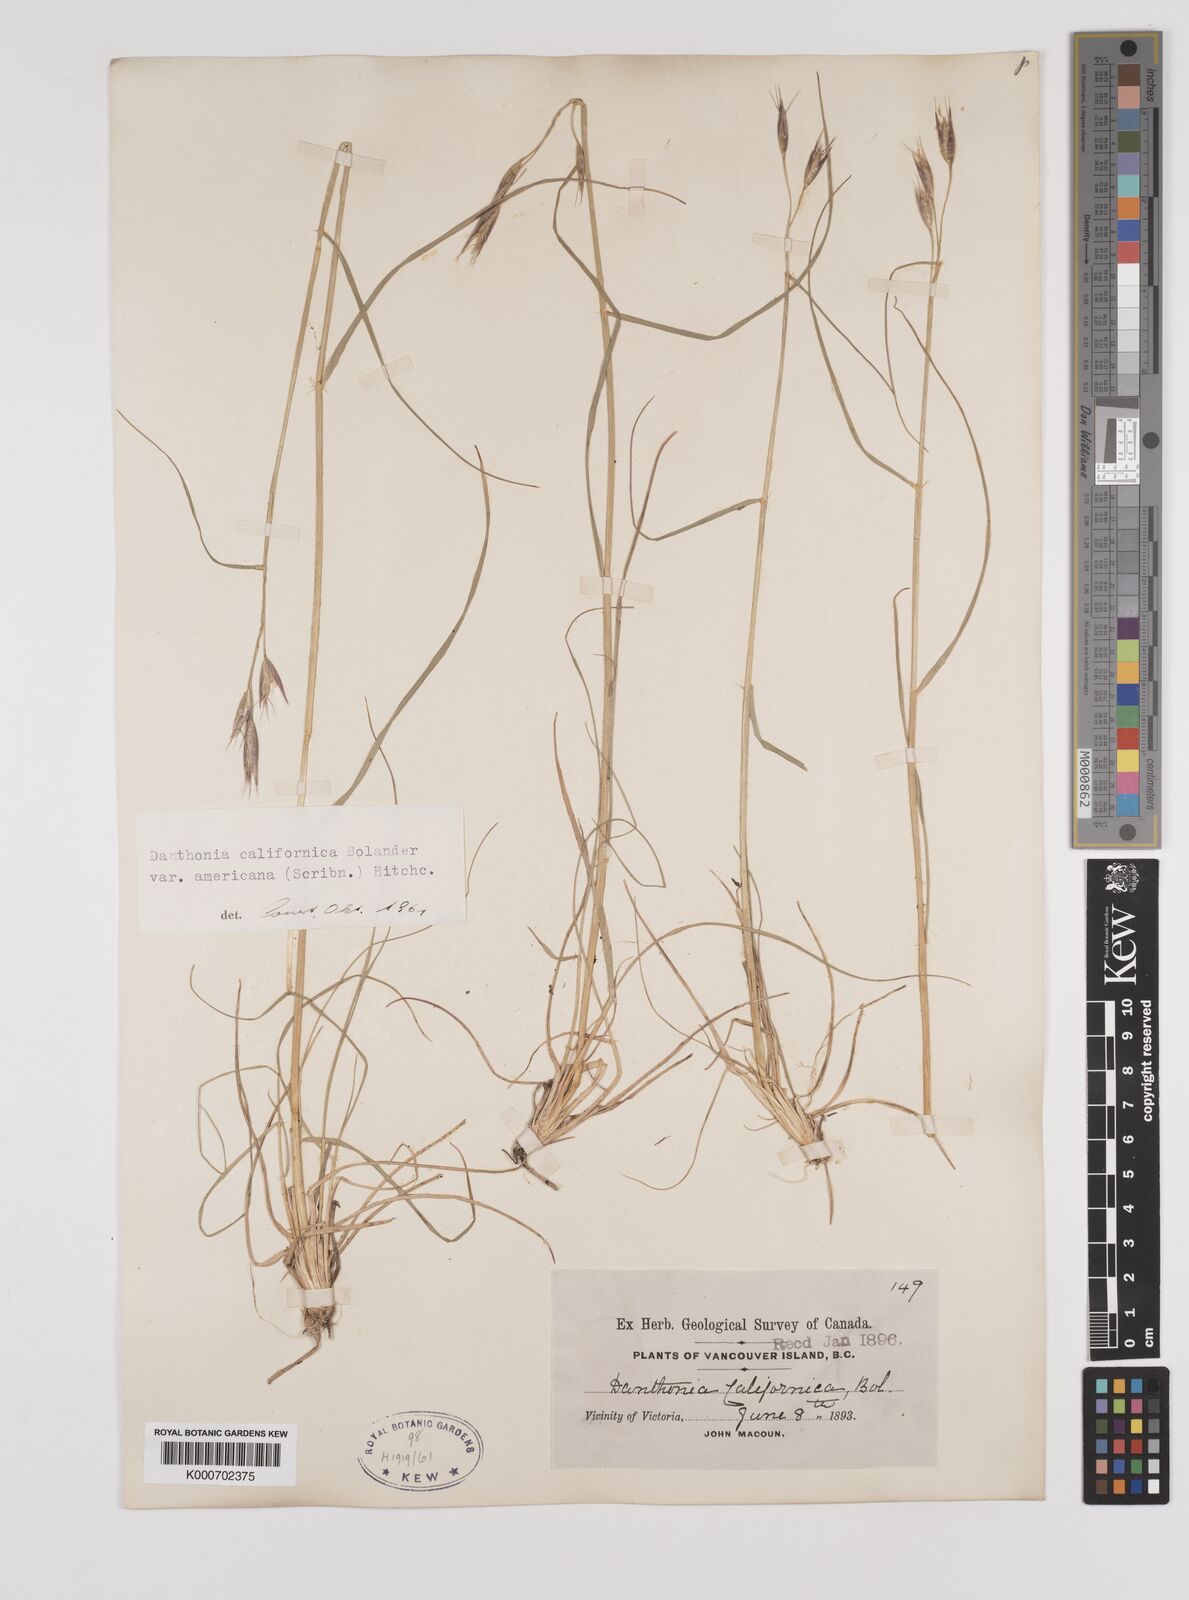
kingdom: Plantae
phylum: Tracheophyta
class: Liliopsida
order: Poales
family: Poaceae
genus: Danthonia
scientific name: Danthonia californica
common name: California oat grass
